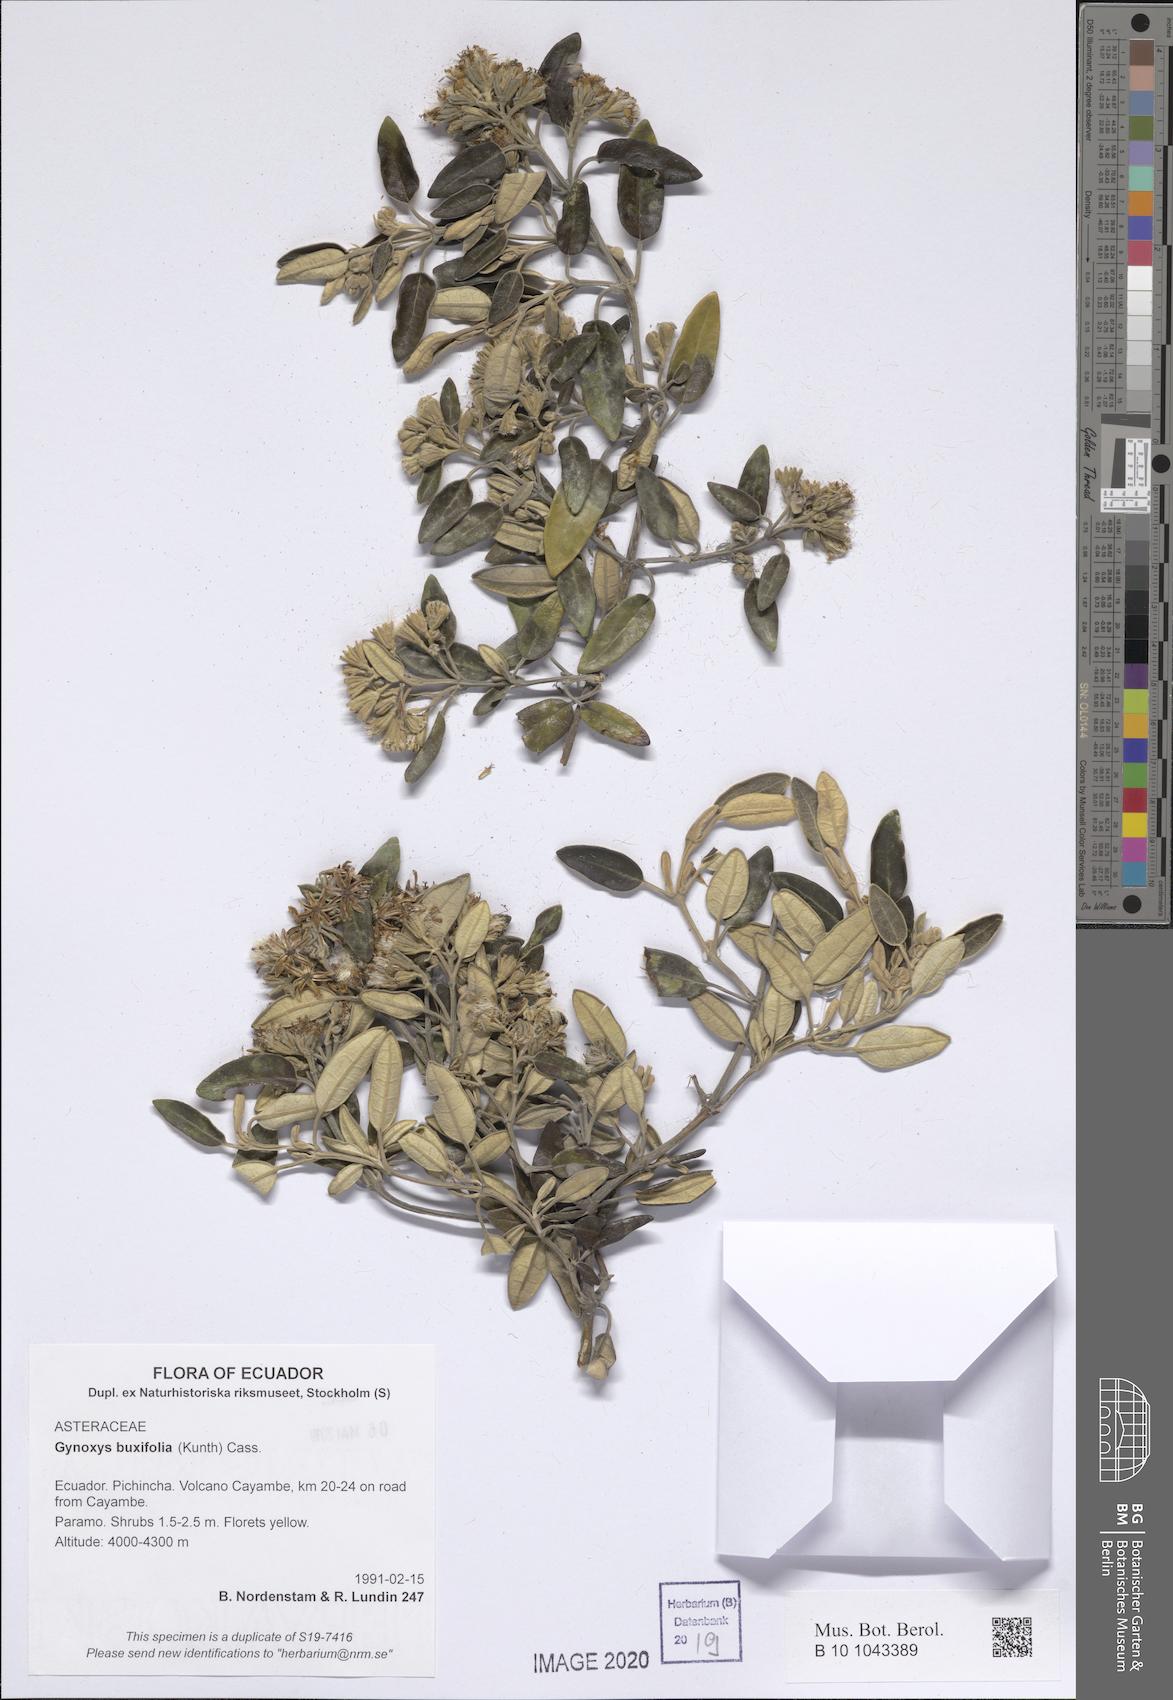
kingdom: Plantae
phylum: Tracheophyta
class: Magnoliopsida
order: Asterales
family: Asteraceae
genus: Gynoxys
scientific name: Gynoxys buxifolia
